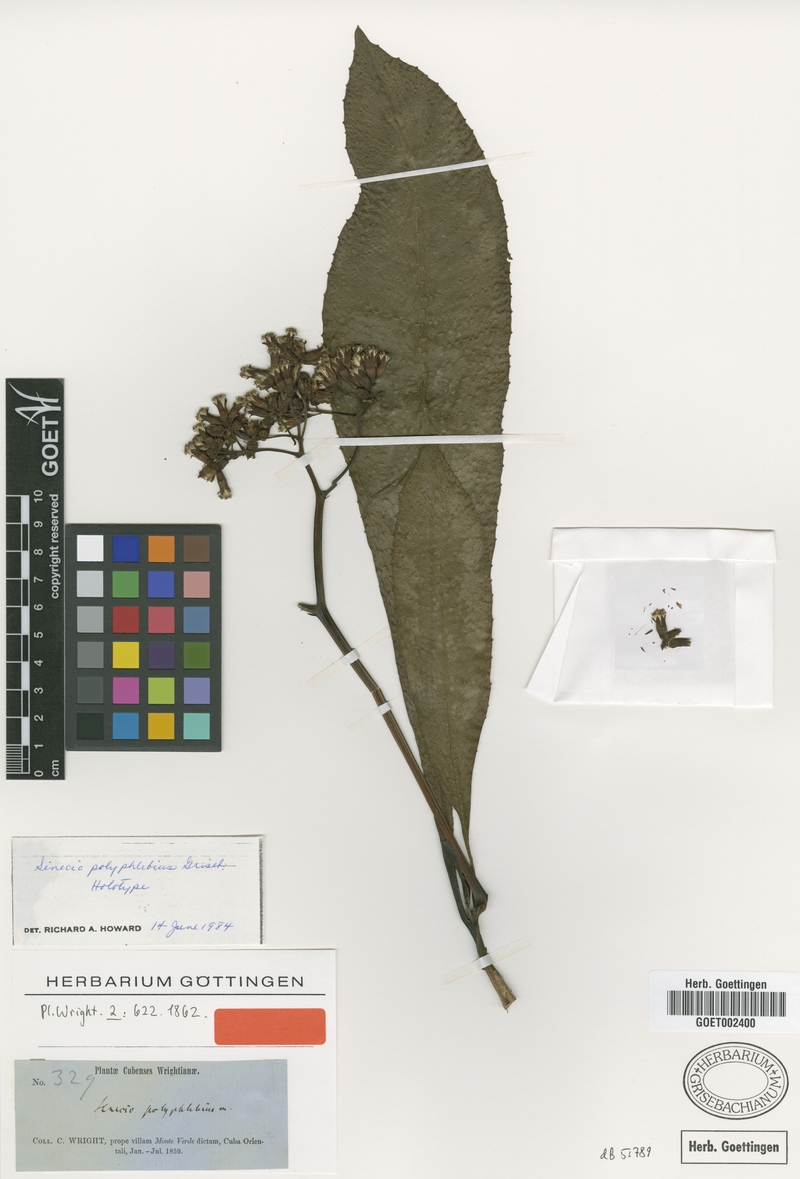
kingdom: Plantae
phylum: Tracheophyta
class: Magnoliopsida
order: Asterales
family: Asteraceae
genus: Oldfeltia
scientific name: Oldfeltia polyphlebia
